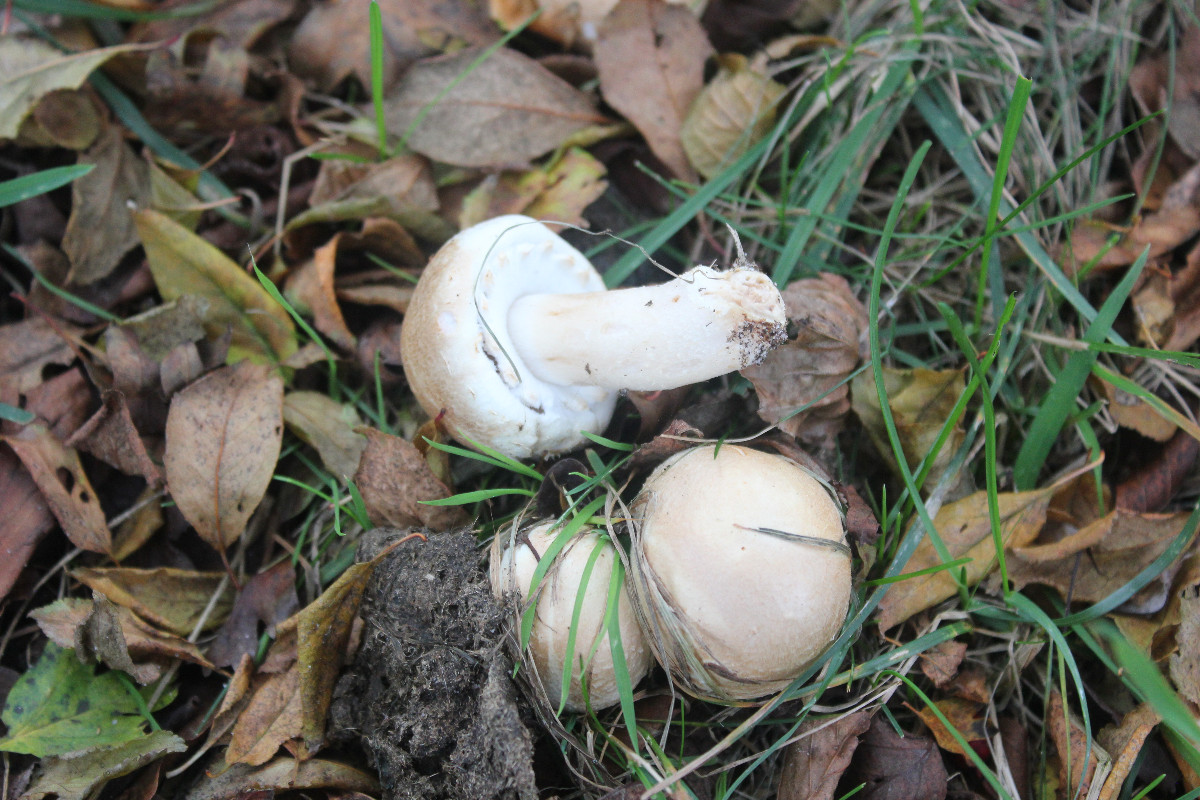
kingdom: Fungi
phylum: Basidiomycota
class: Agaricomycetes
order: Agaricales
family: Agaricaceae
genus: Agaricus
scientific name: Agaricus
